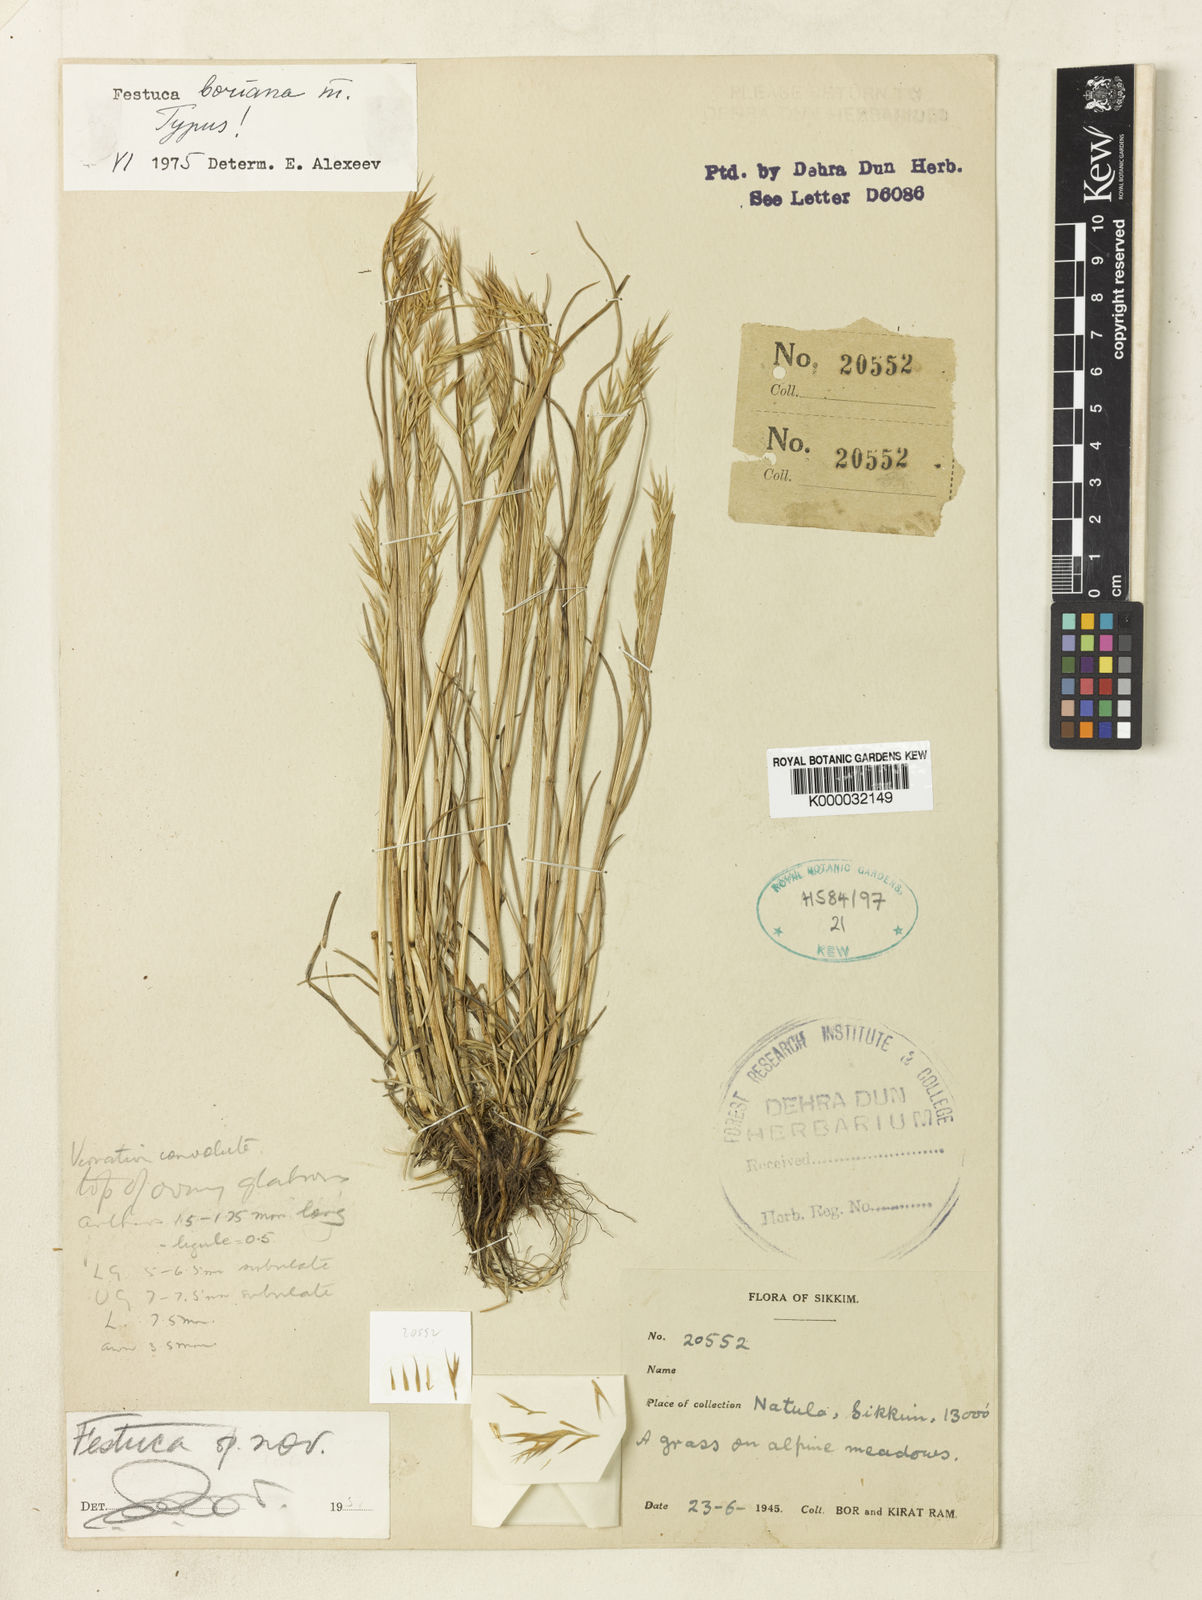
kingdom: Plantae
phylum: Tracheophyta
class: Liliopsida
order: Poales
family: Poaceae
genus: Festuca
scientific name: Festuca boriana
